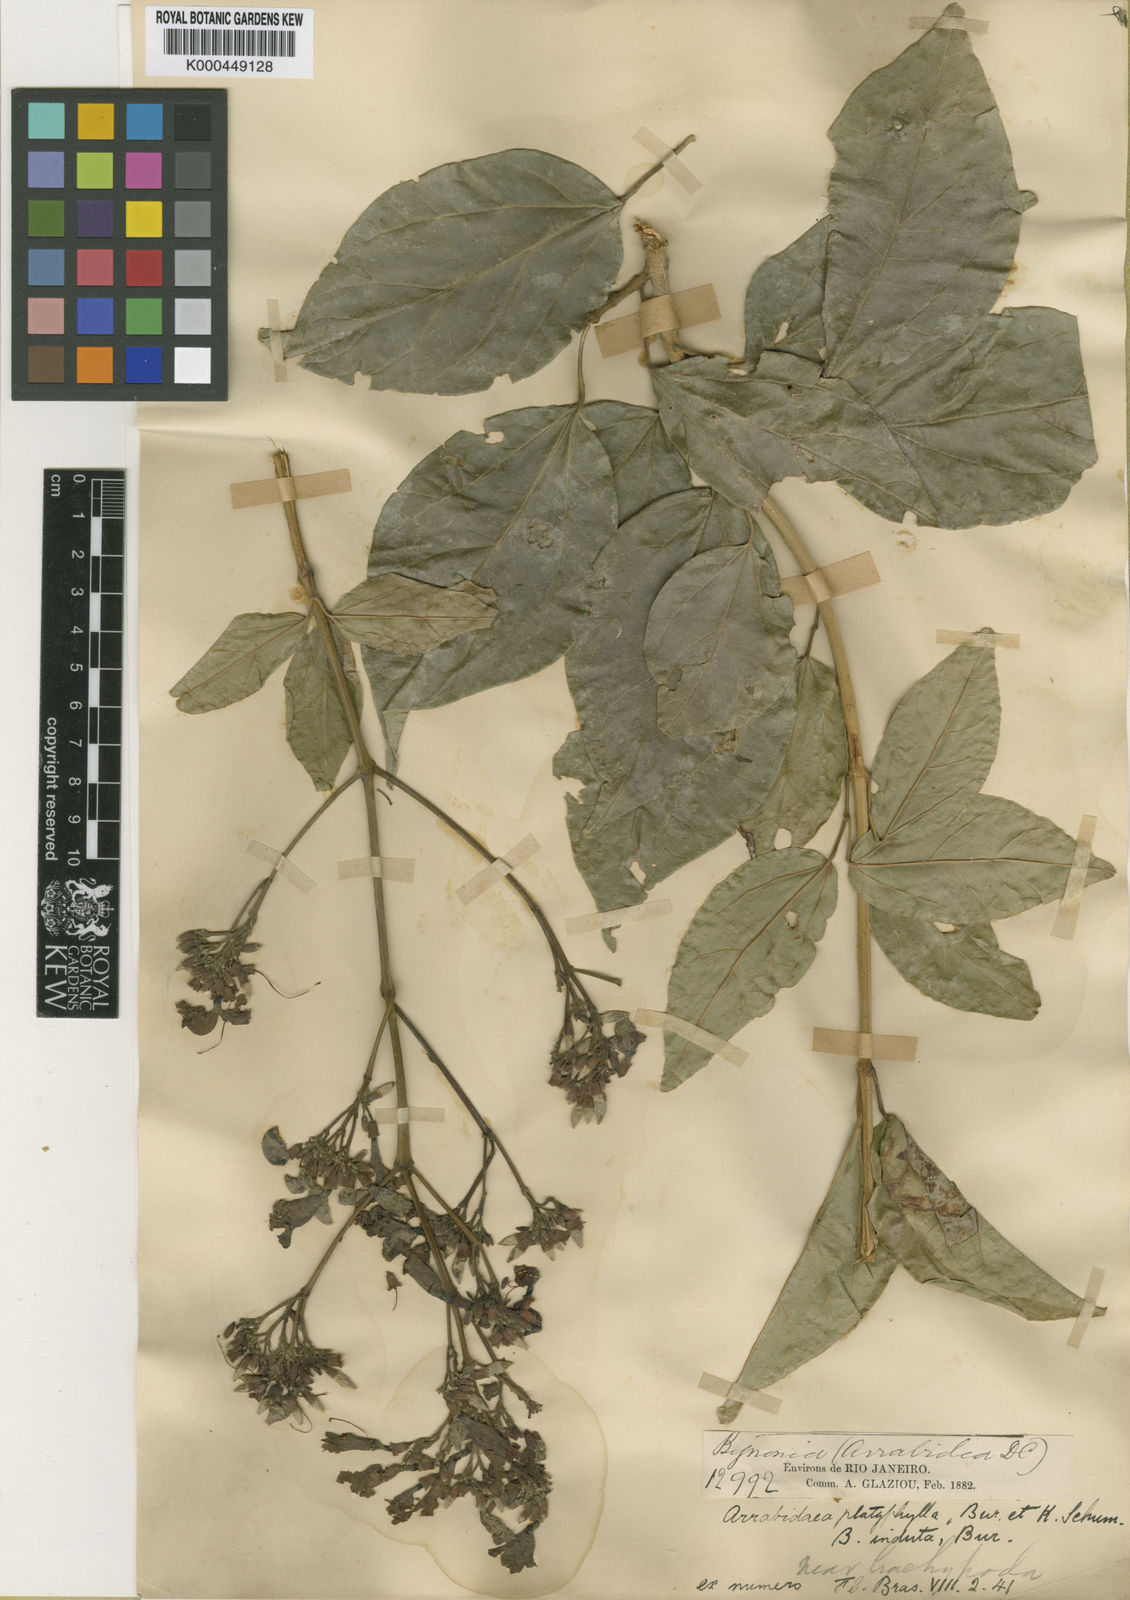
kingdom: Plantae
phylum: Tracheophyta
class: Magnoliopsida
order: Lamiales
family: Bignoniaceae
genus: Fridericia
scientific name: Fridericia platyphylla
